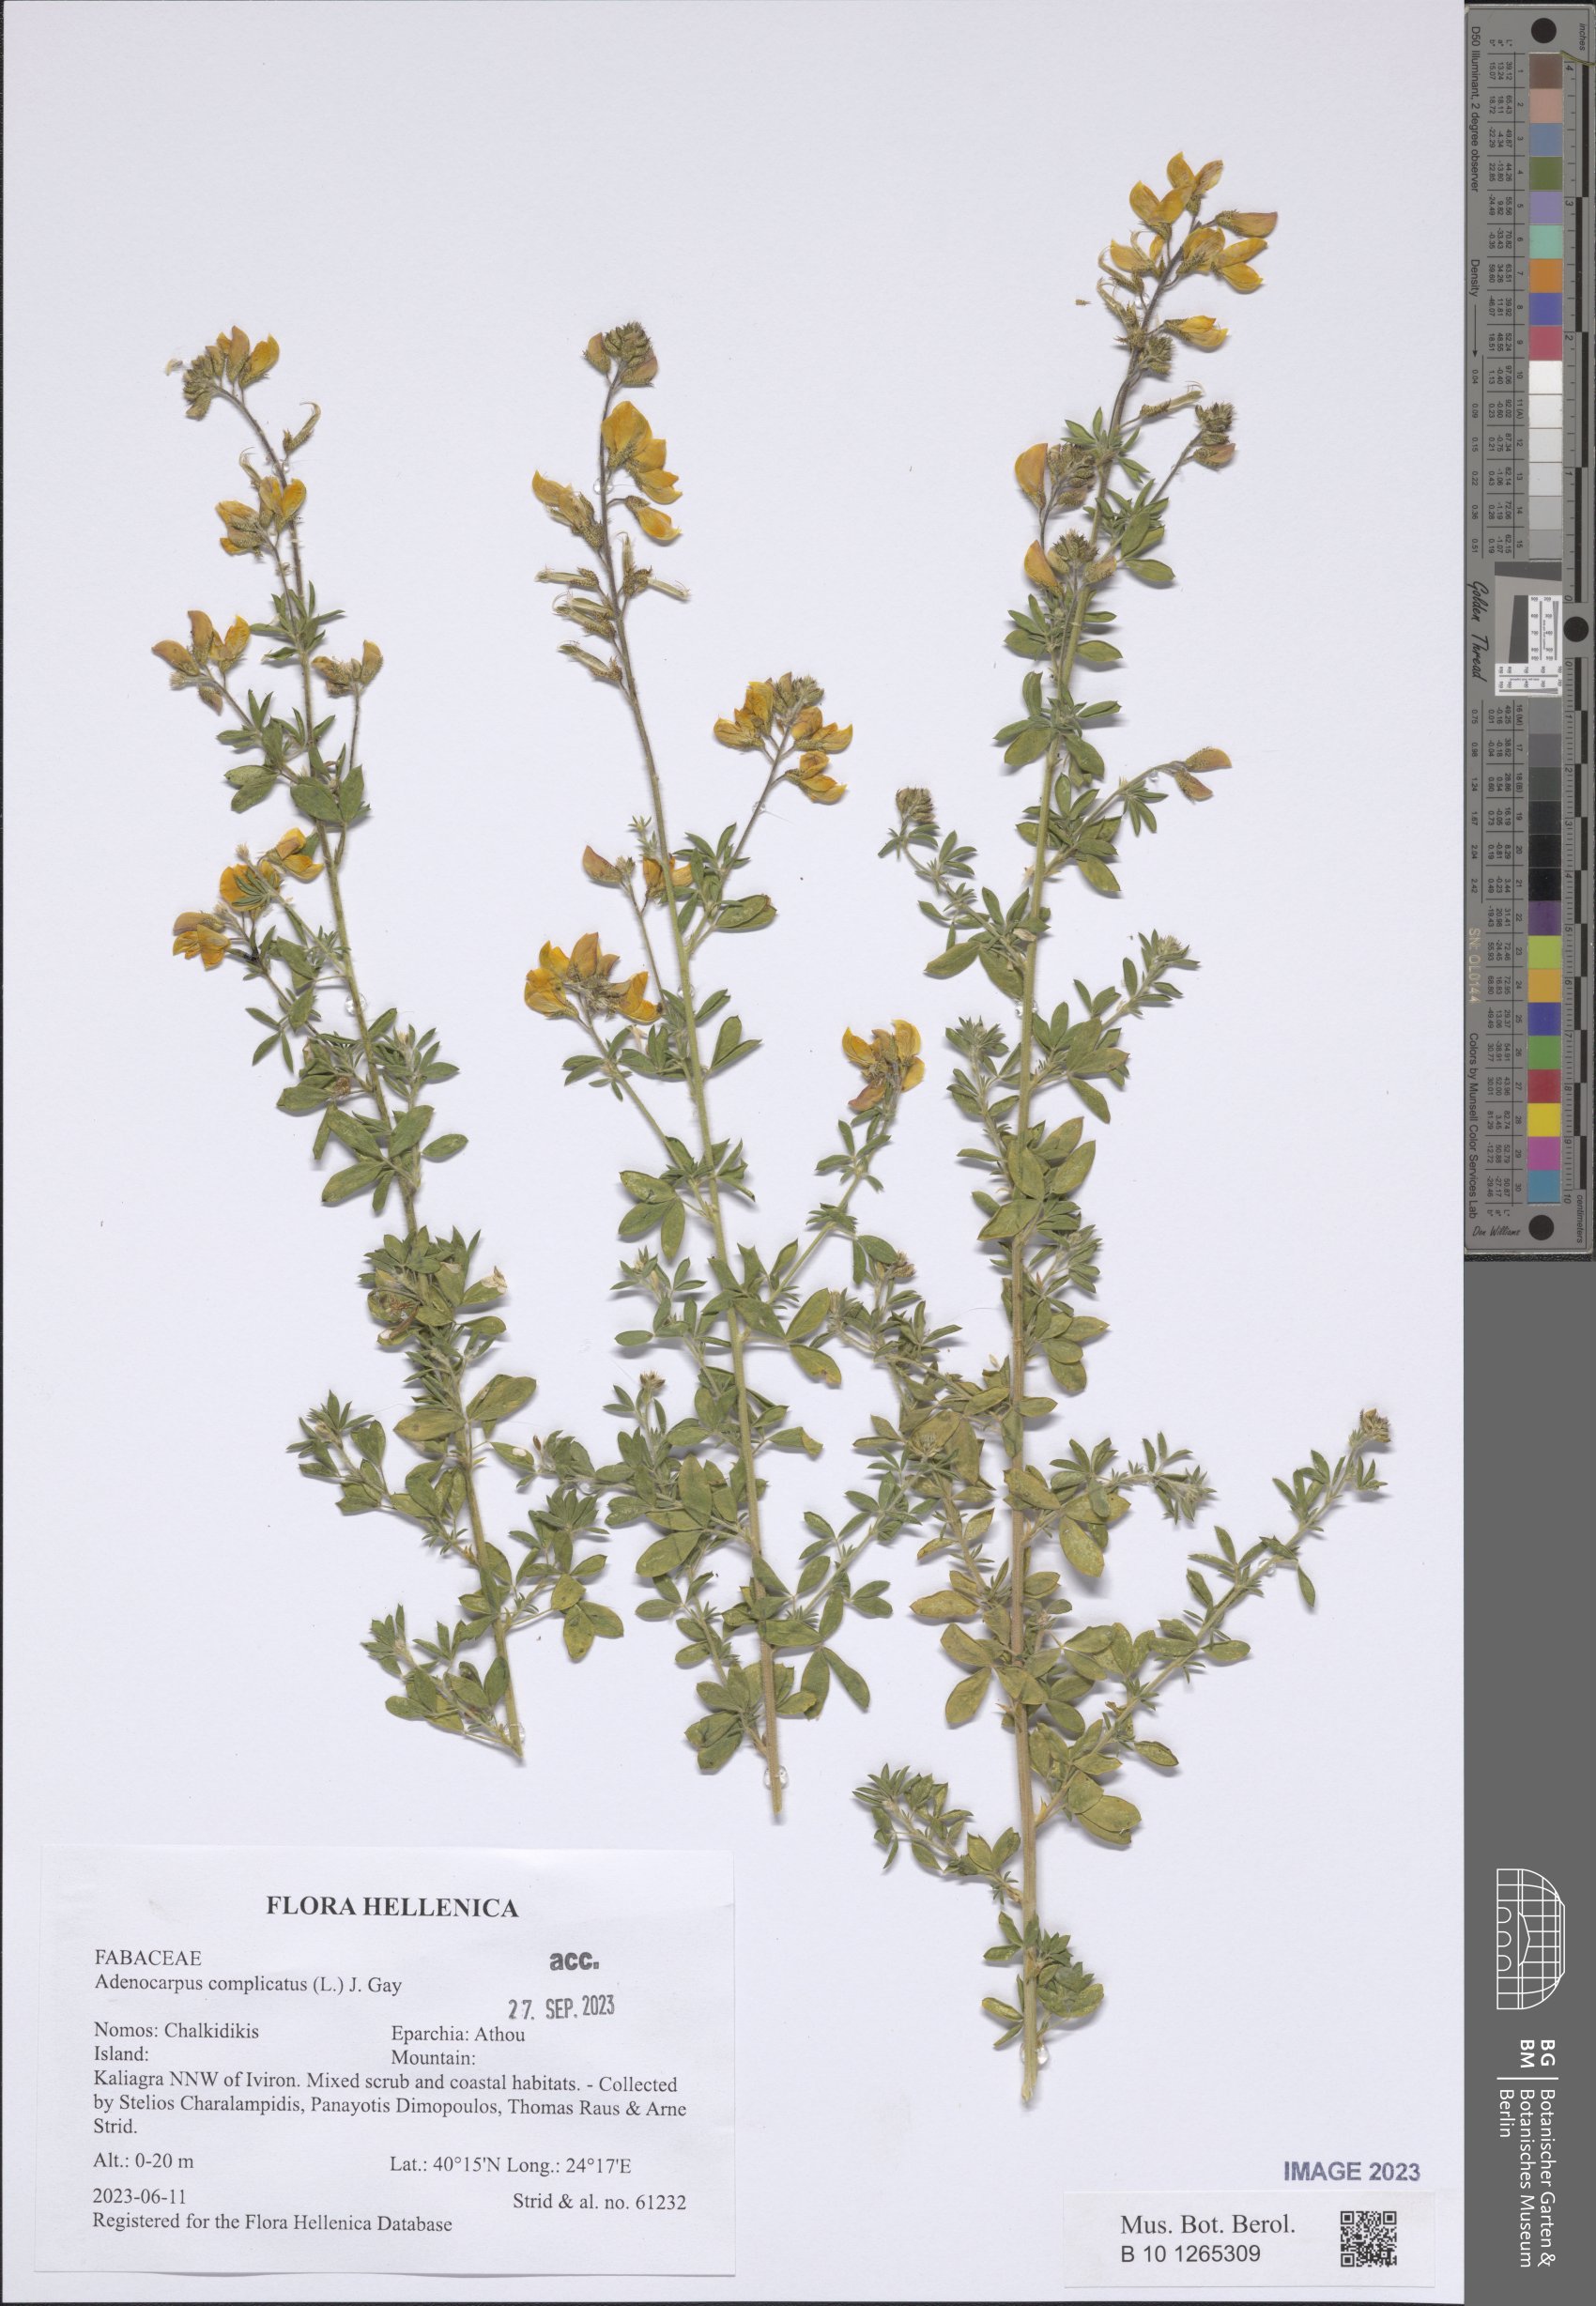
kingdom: Plantae
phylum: Tracheophyta
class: Magnoliopsida
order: Fabales
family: Fabaceae
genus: Adenocarpus
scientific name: Adenocarpus complicatus
